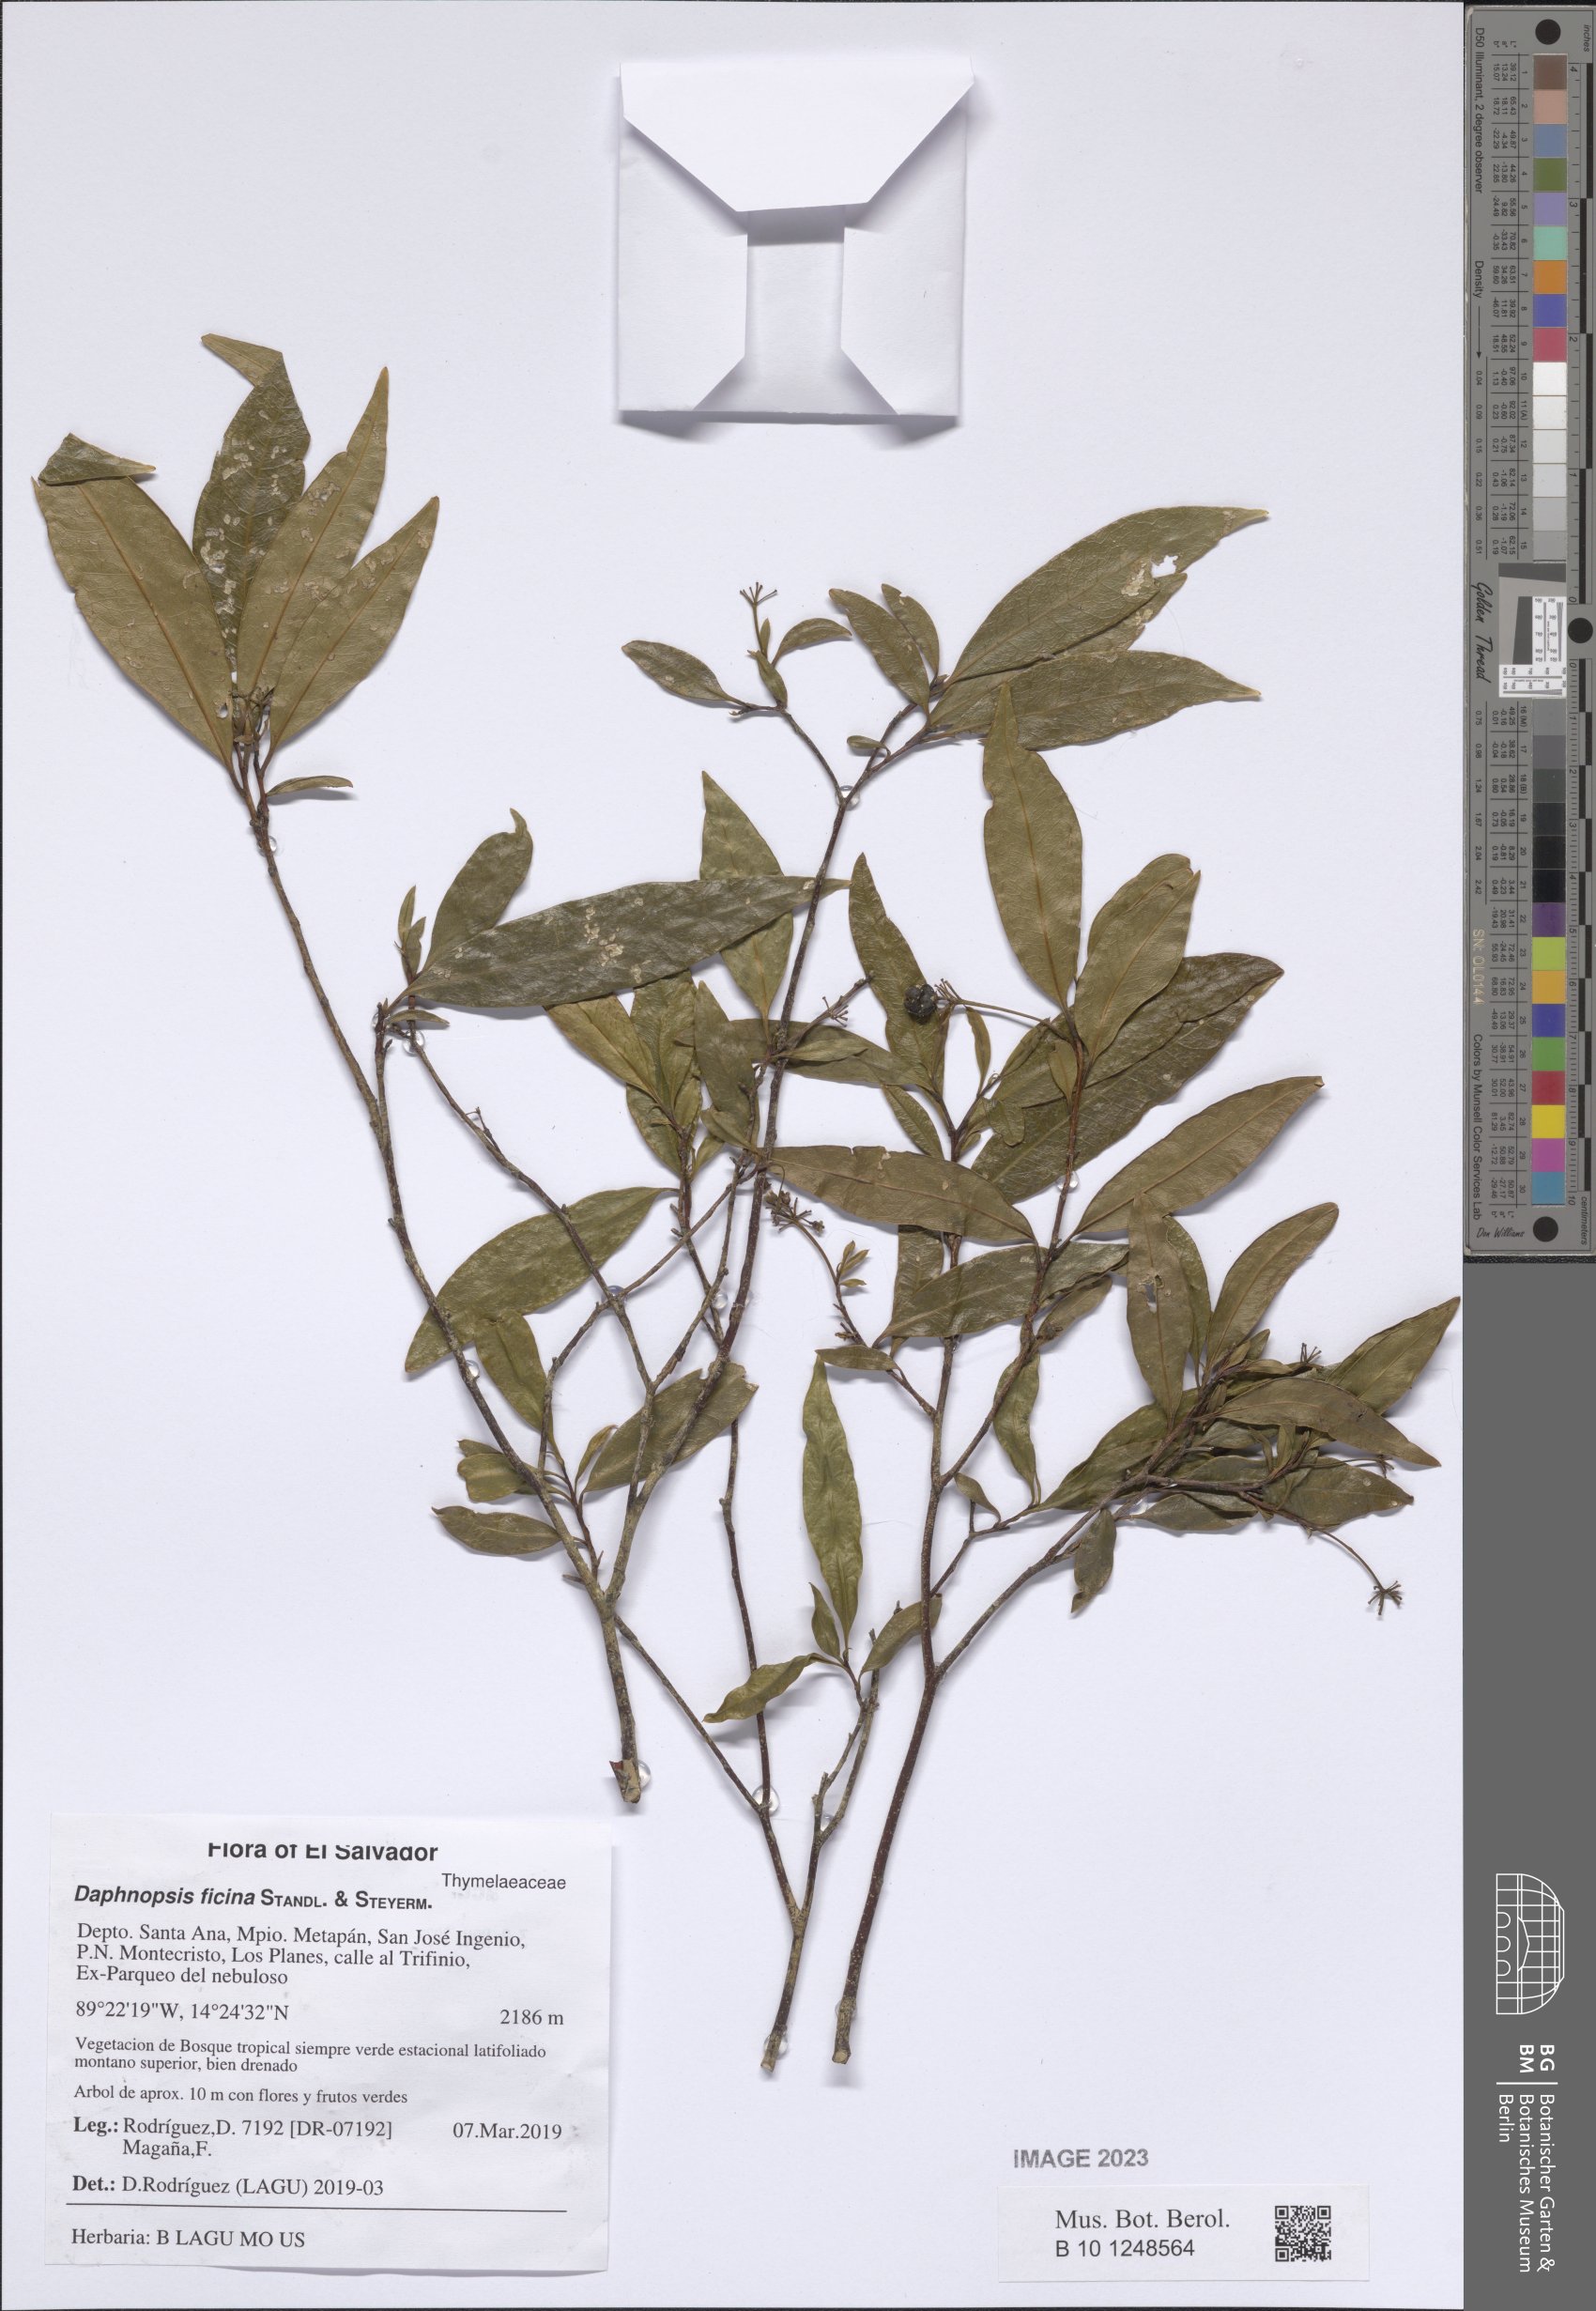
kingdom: Plantae
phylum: Tracheophyta
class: Magnoliopsida
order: Malvales
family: Thymelaeaceae
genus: Daphnopsis
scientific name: Daphnopsis ficina
